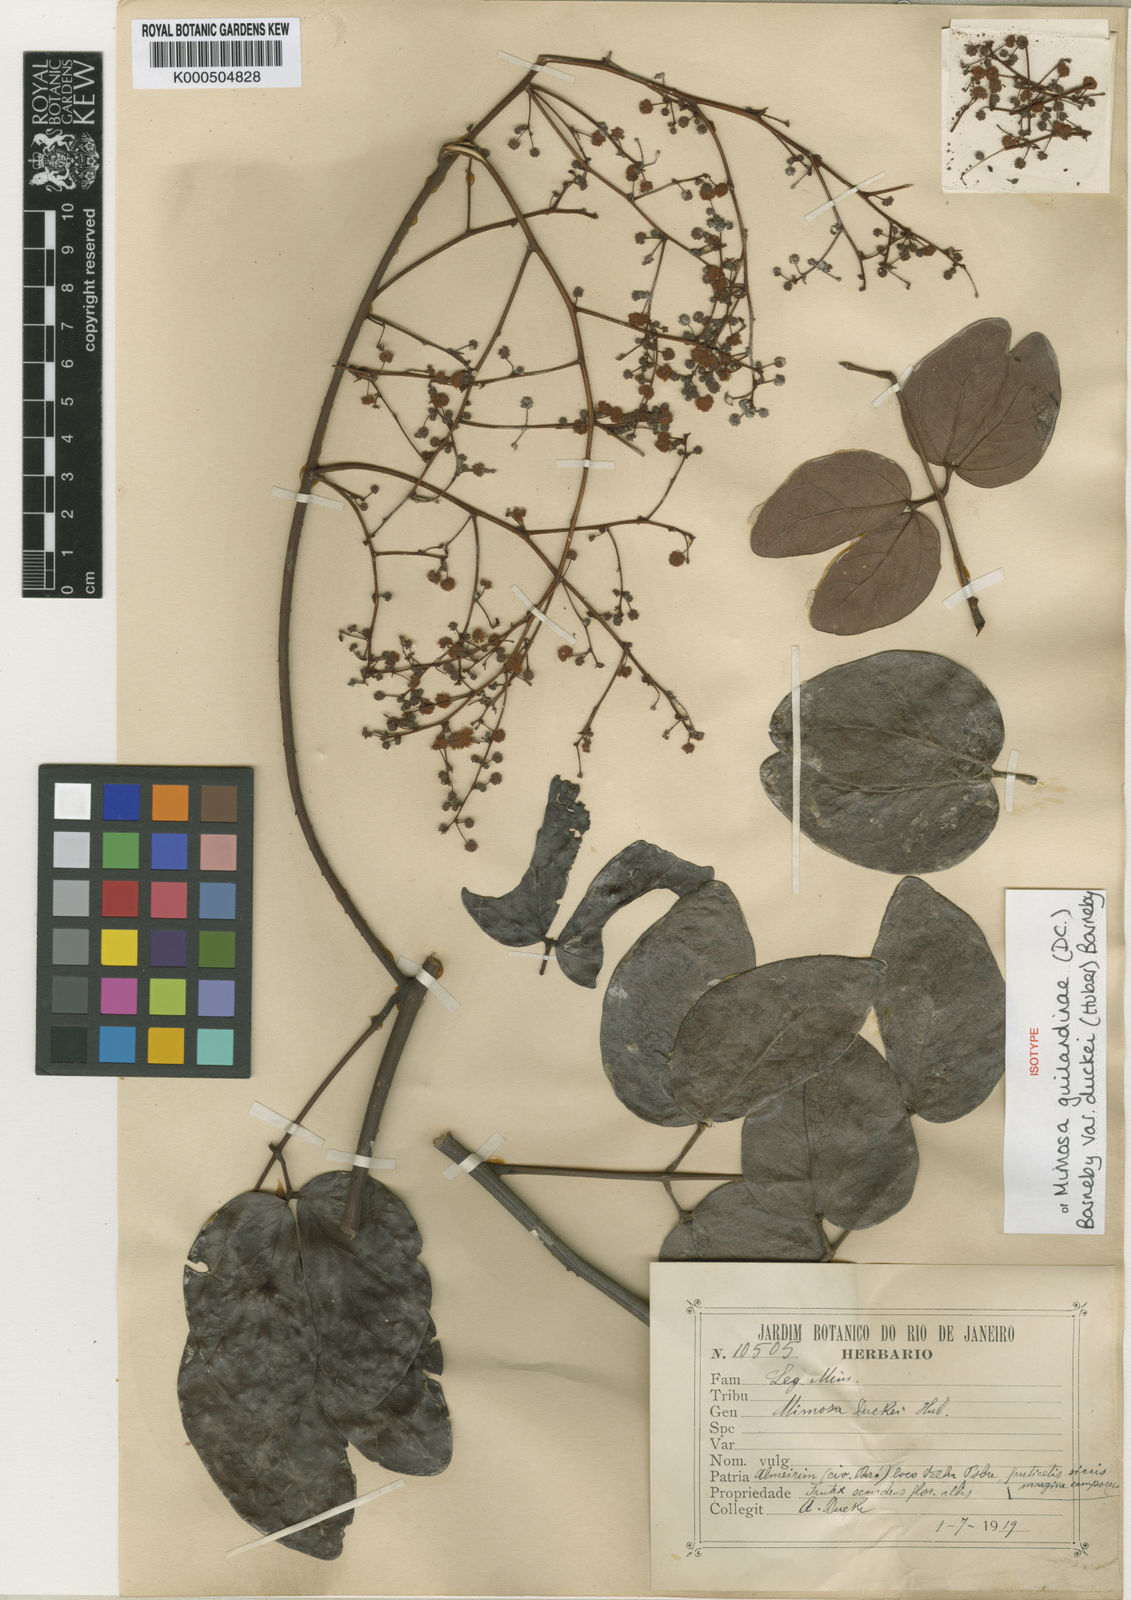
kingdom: Plantae
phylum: Tracheophyta
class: Magnoliopsida
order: Fabales
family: Fabaceae
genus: Mimosa
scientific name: Mimosa guilandinae
